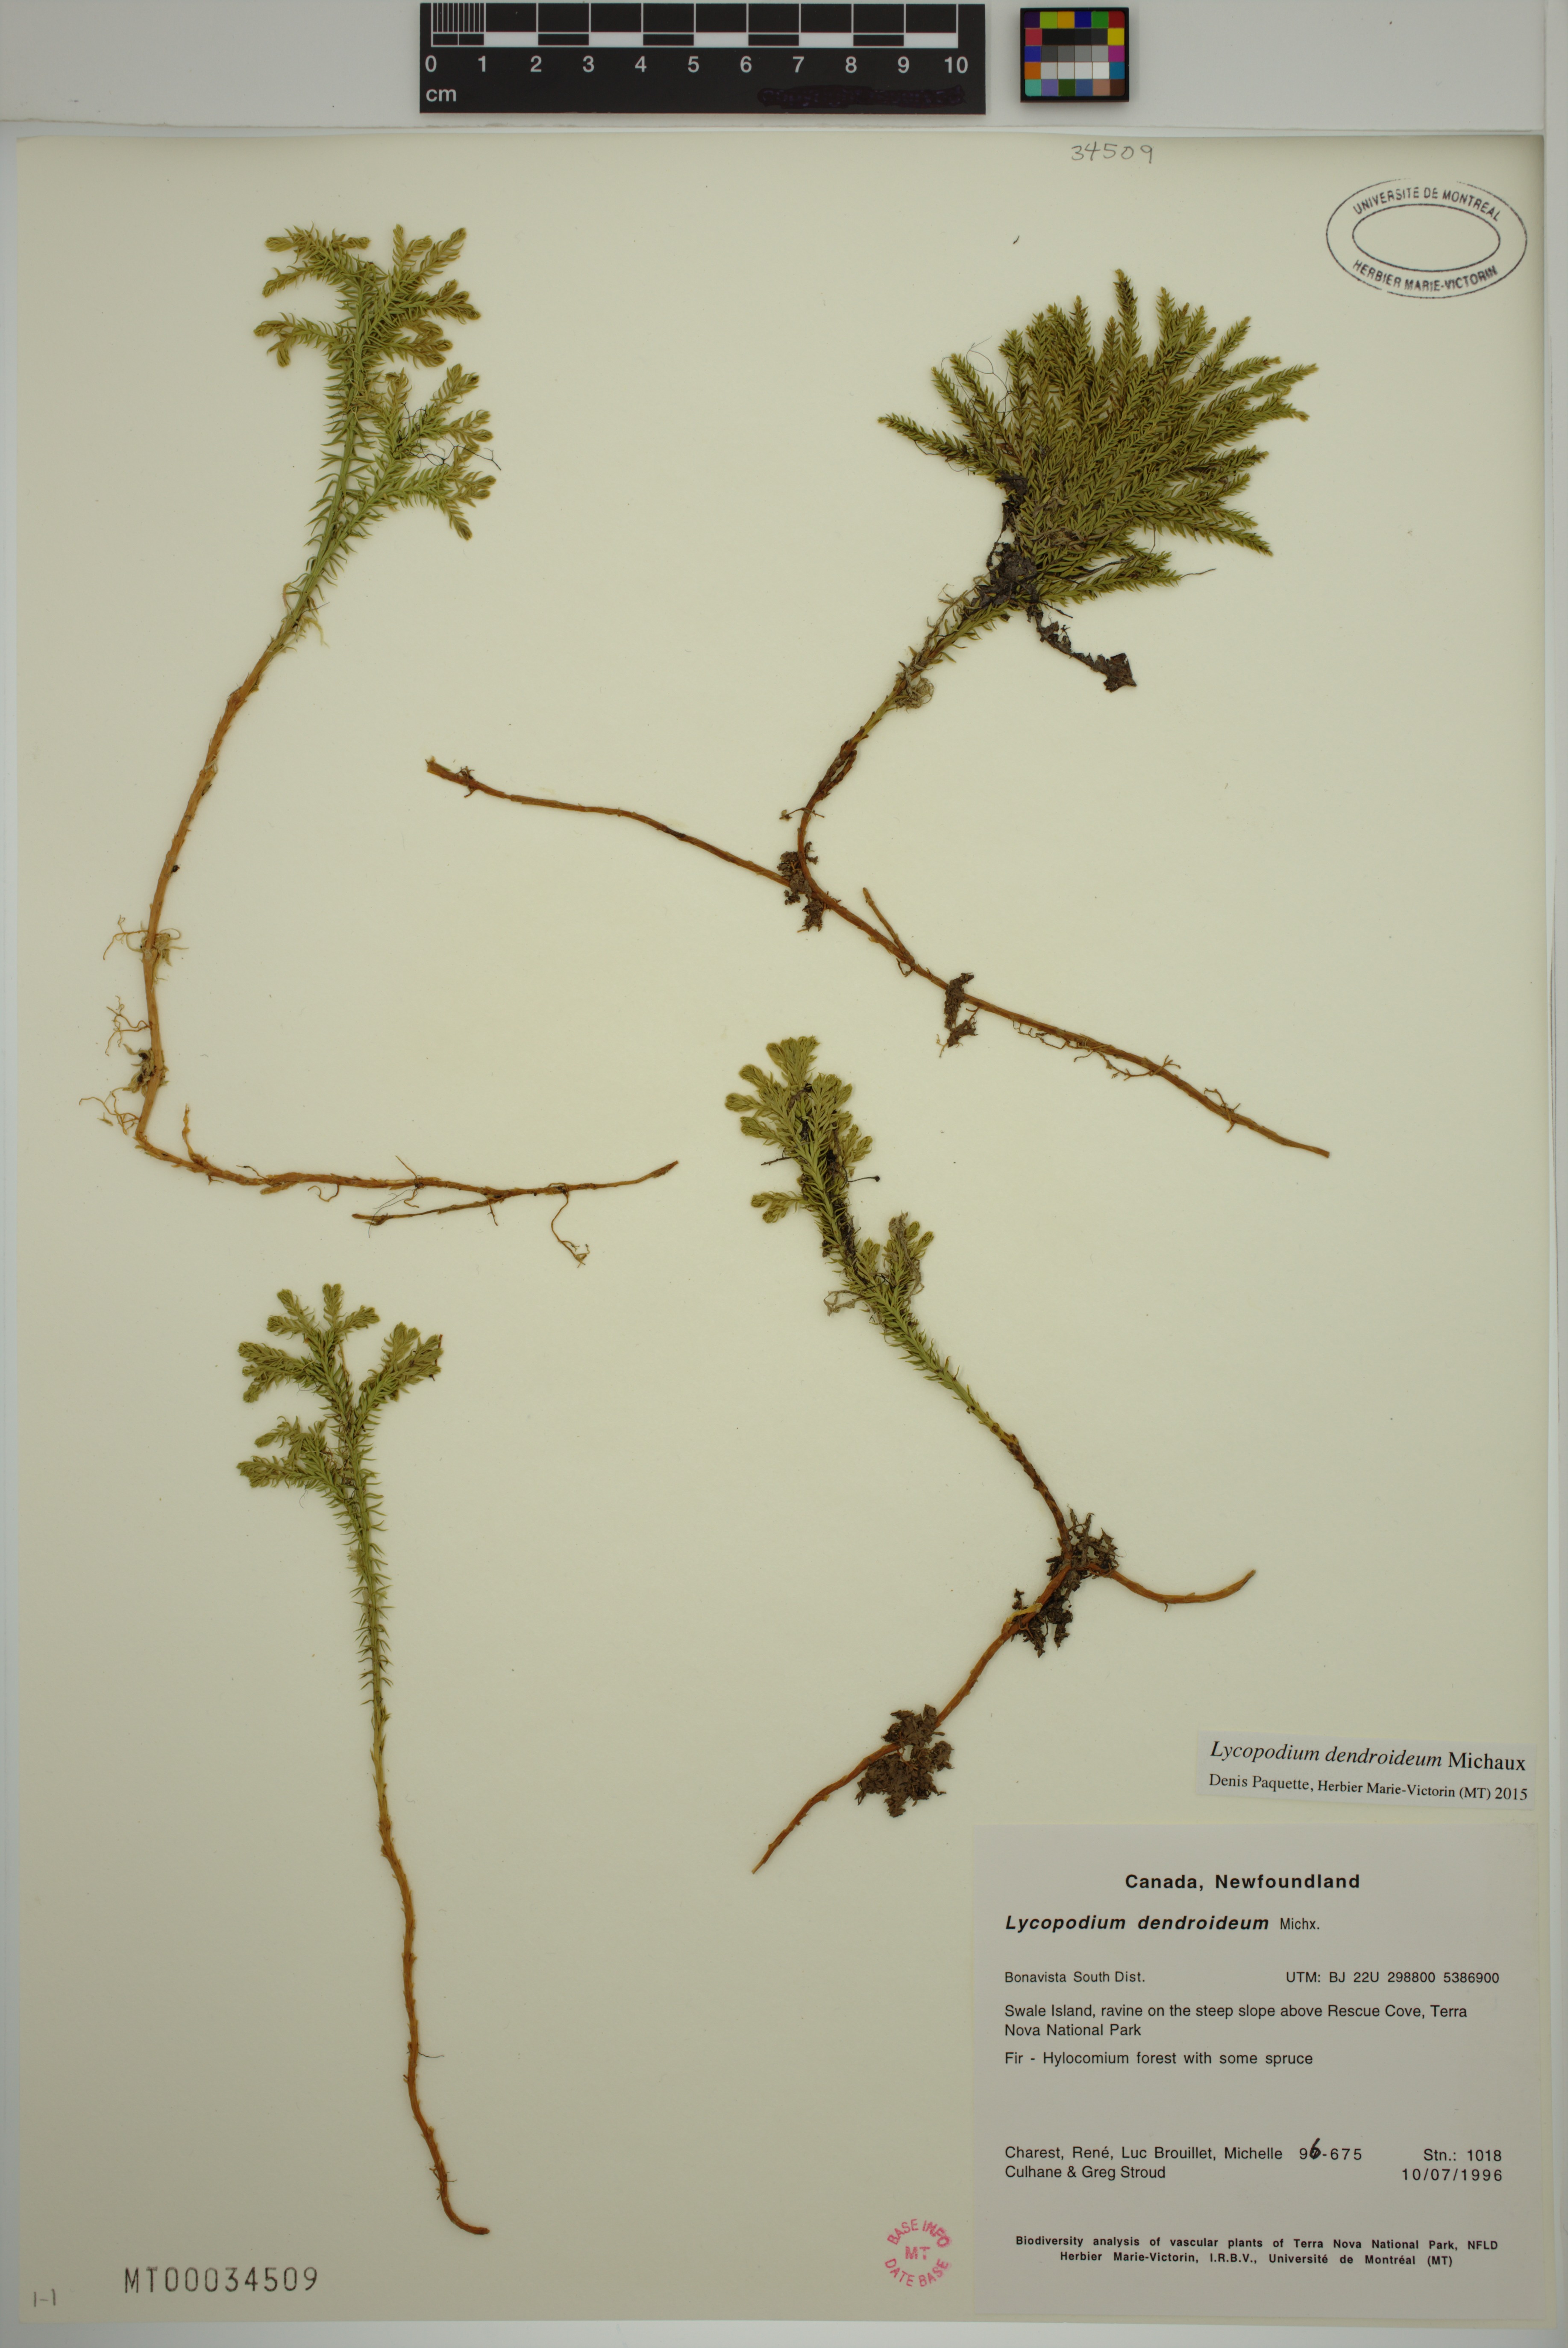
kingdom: Plantae
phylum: Tracheophyta
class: Lycopodiopsida
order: Lycopodiales
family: Lycopodiaceae
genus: Dendrolycopodium
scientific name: Dendrolycopodium dendroideum
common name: Northern tree-clubmoss
